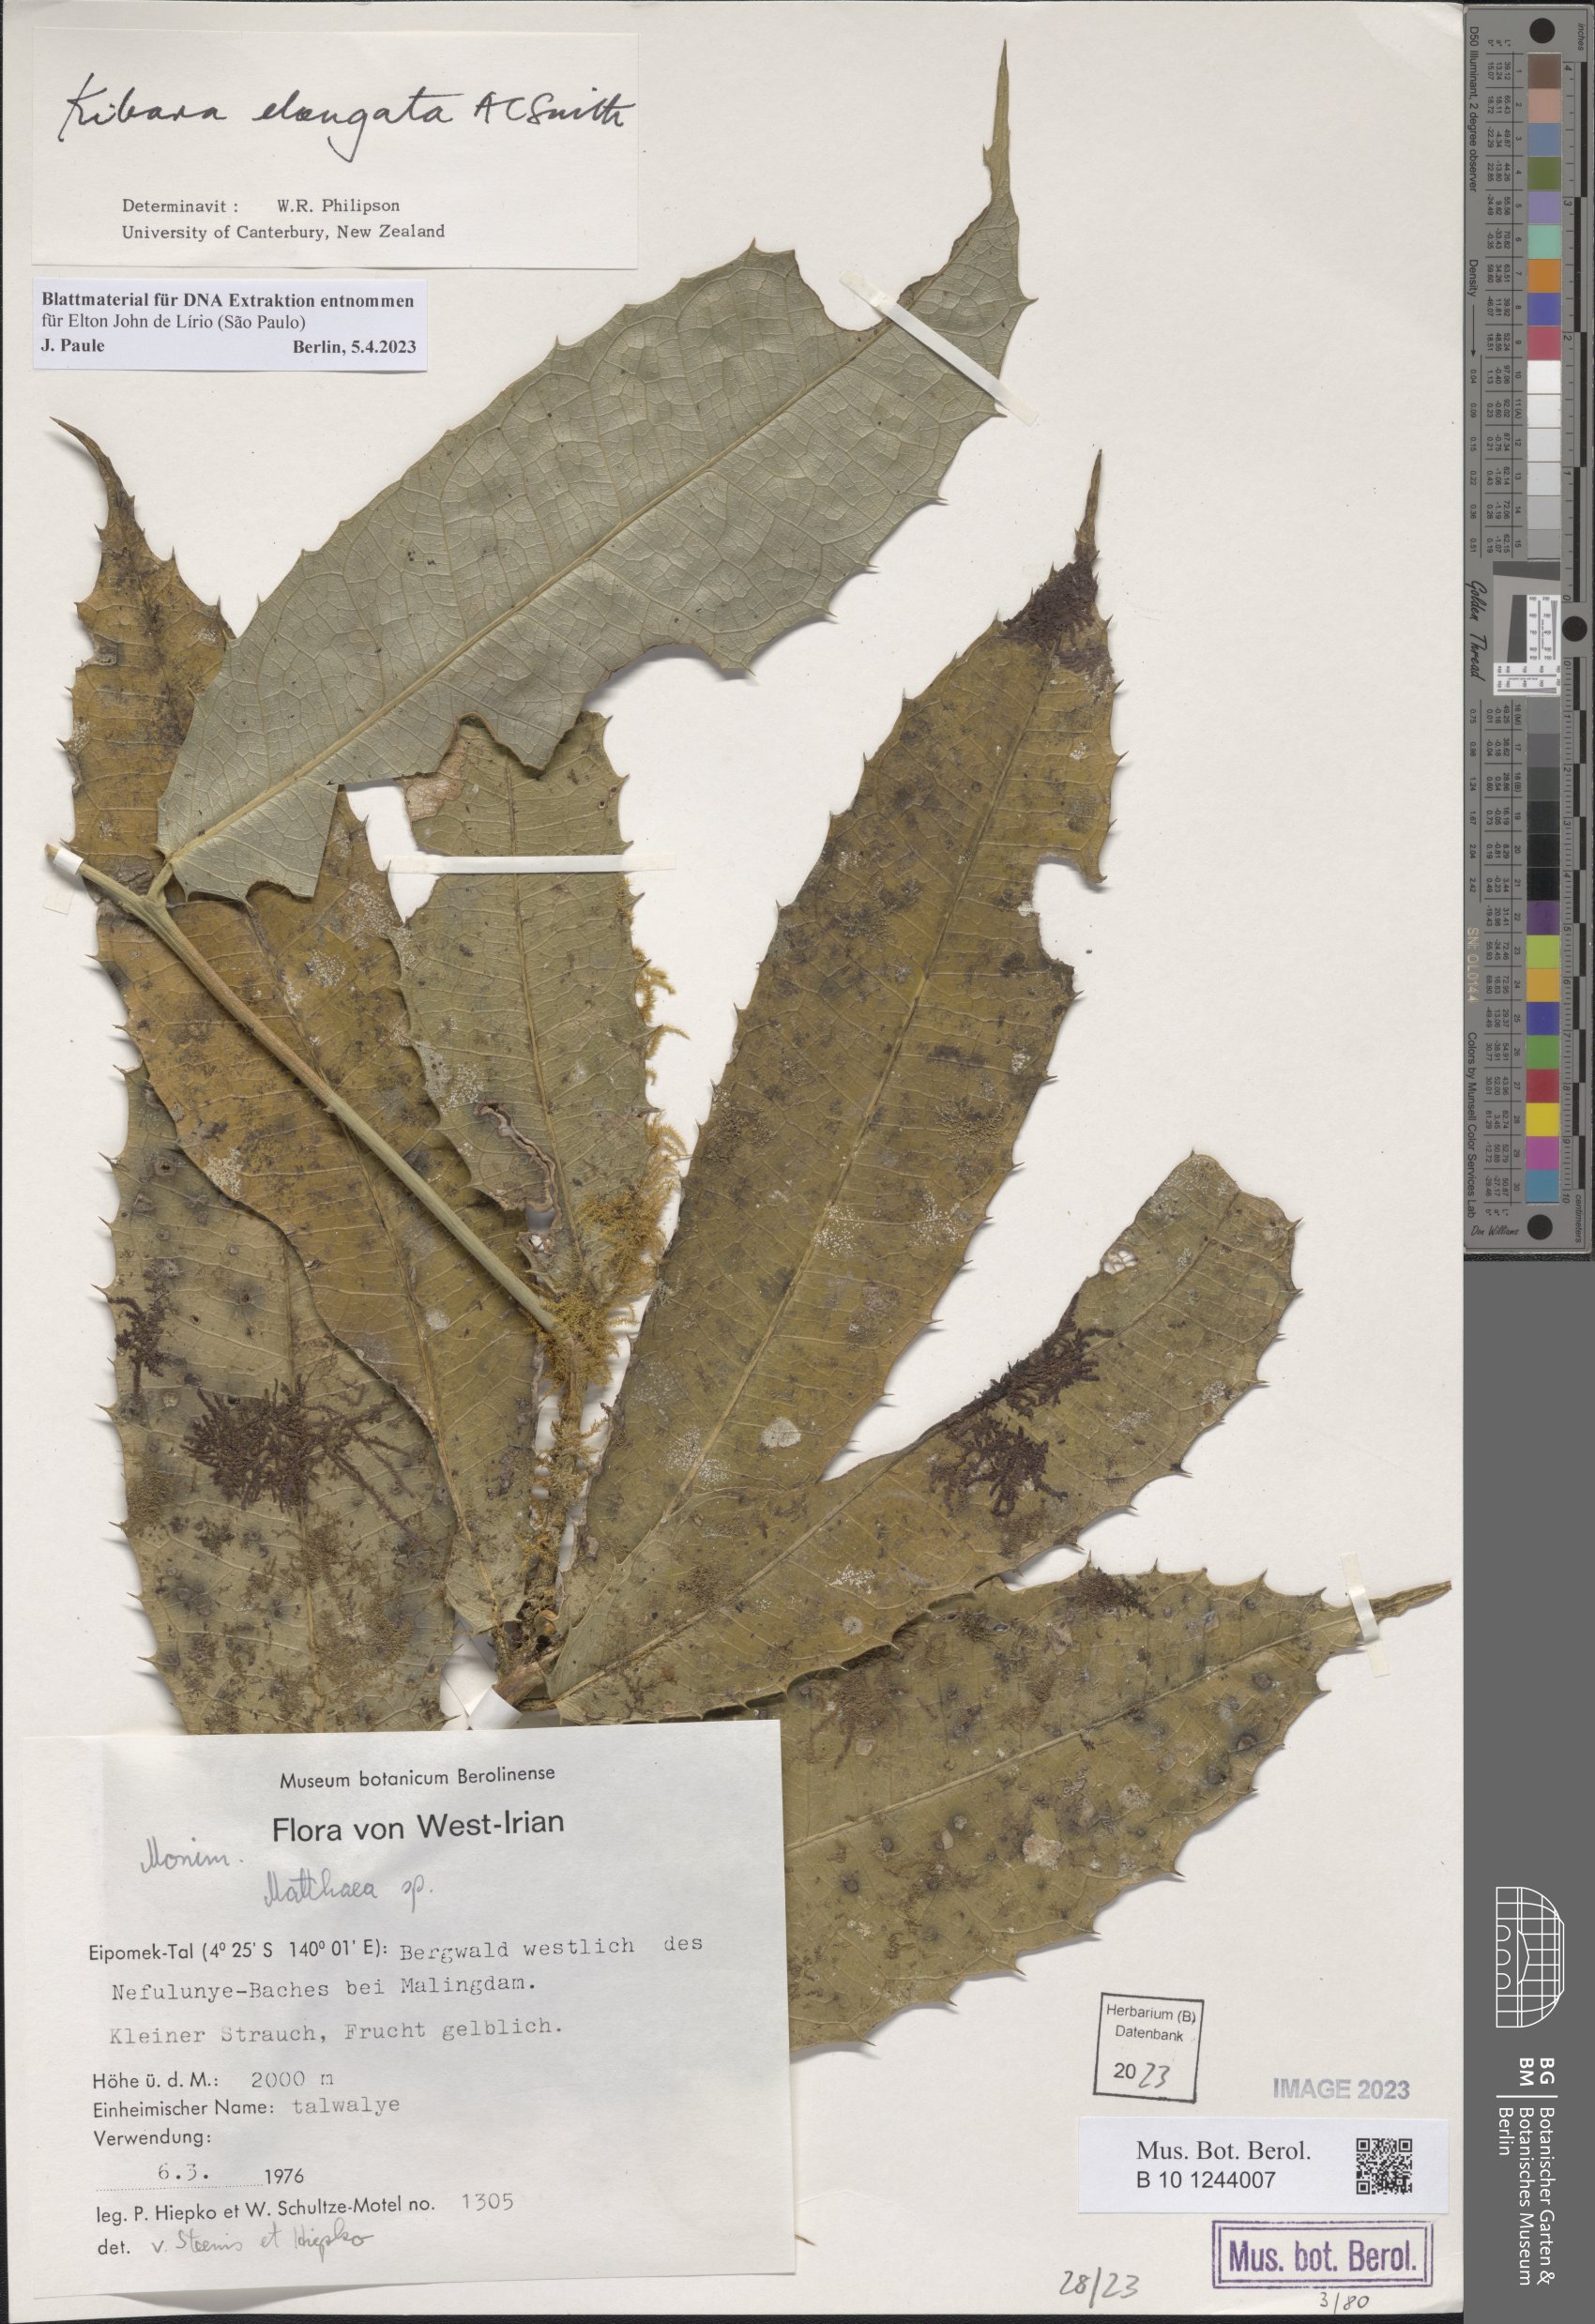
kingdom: Plantae
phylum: Tracheophyta
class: Magnoliopsida
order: Laurales
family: Monimiaceae
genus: Kibara
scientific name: Kibara elongata
